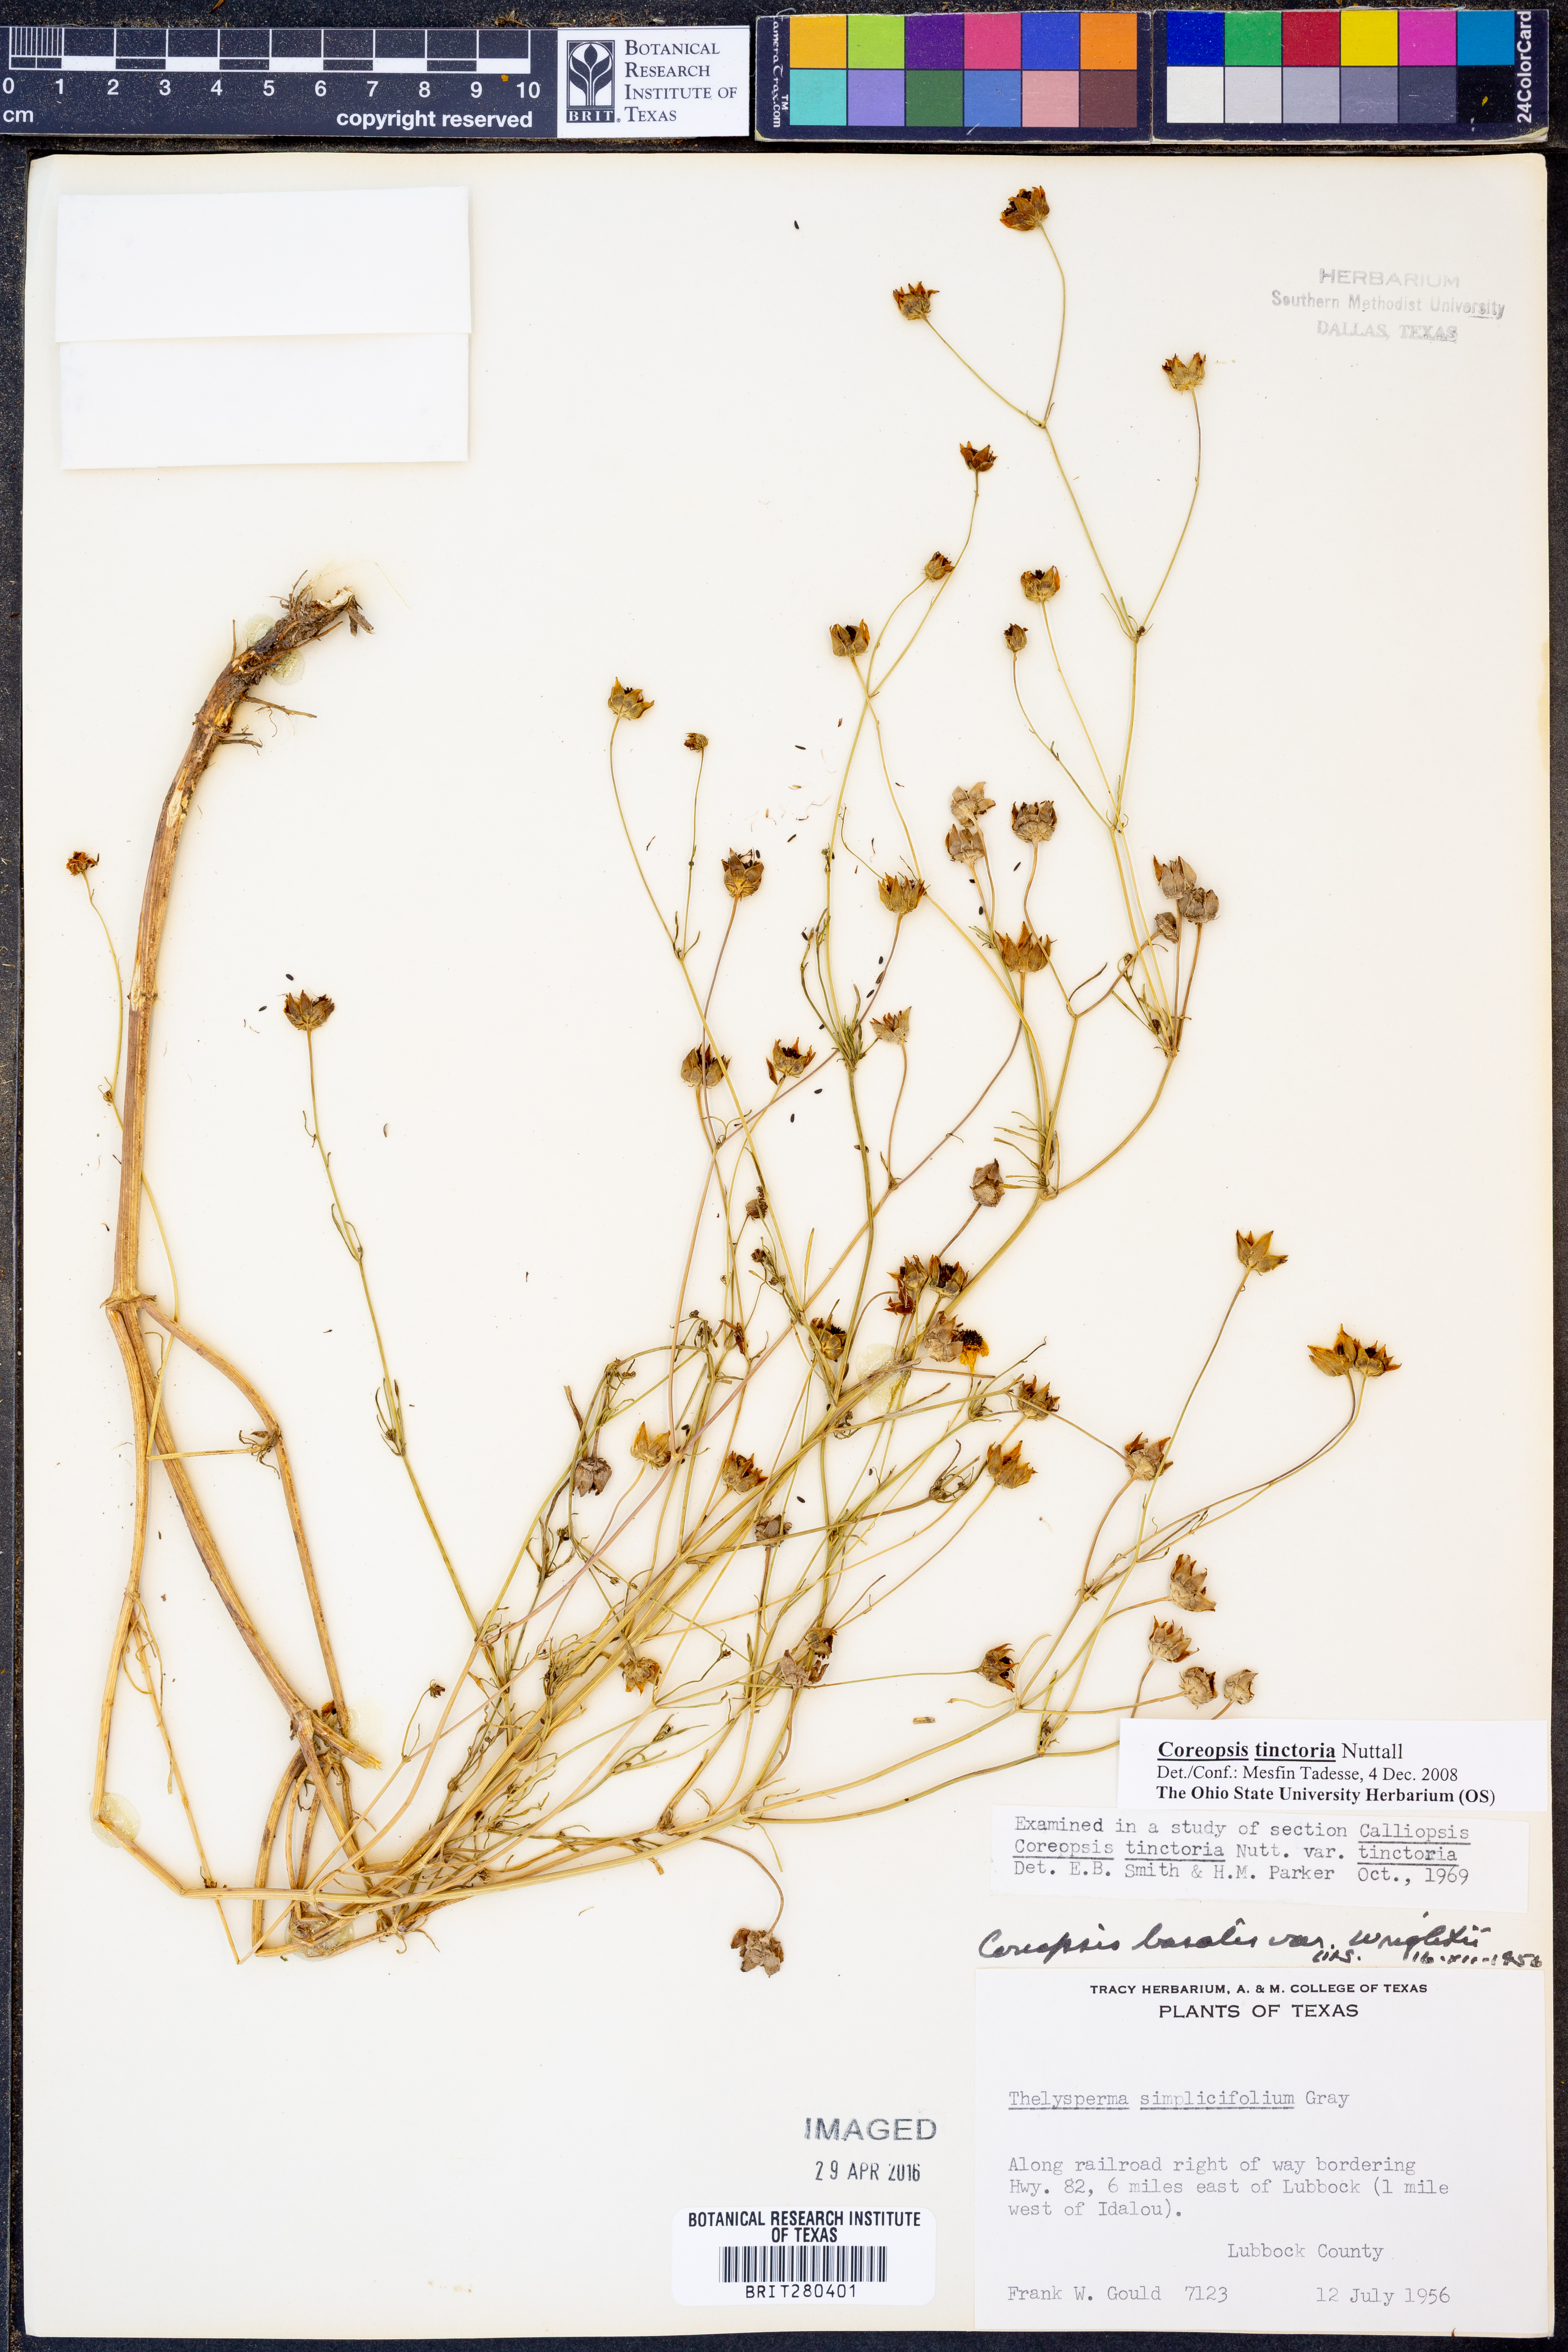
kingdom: Plantae
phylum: Tracheophyta
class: Magnoliopsida
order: Asterales
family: Asteraceae
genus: Coreopsis
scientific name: Coreopsis tinctoria
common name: Garden tickseed
